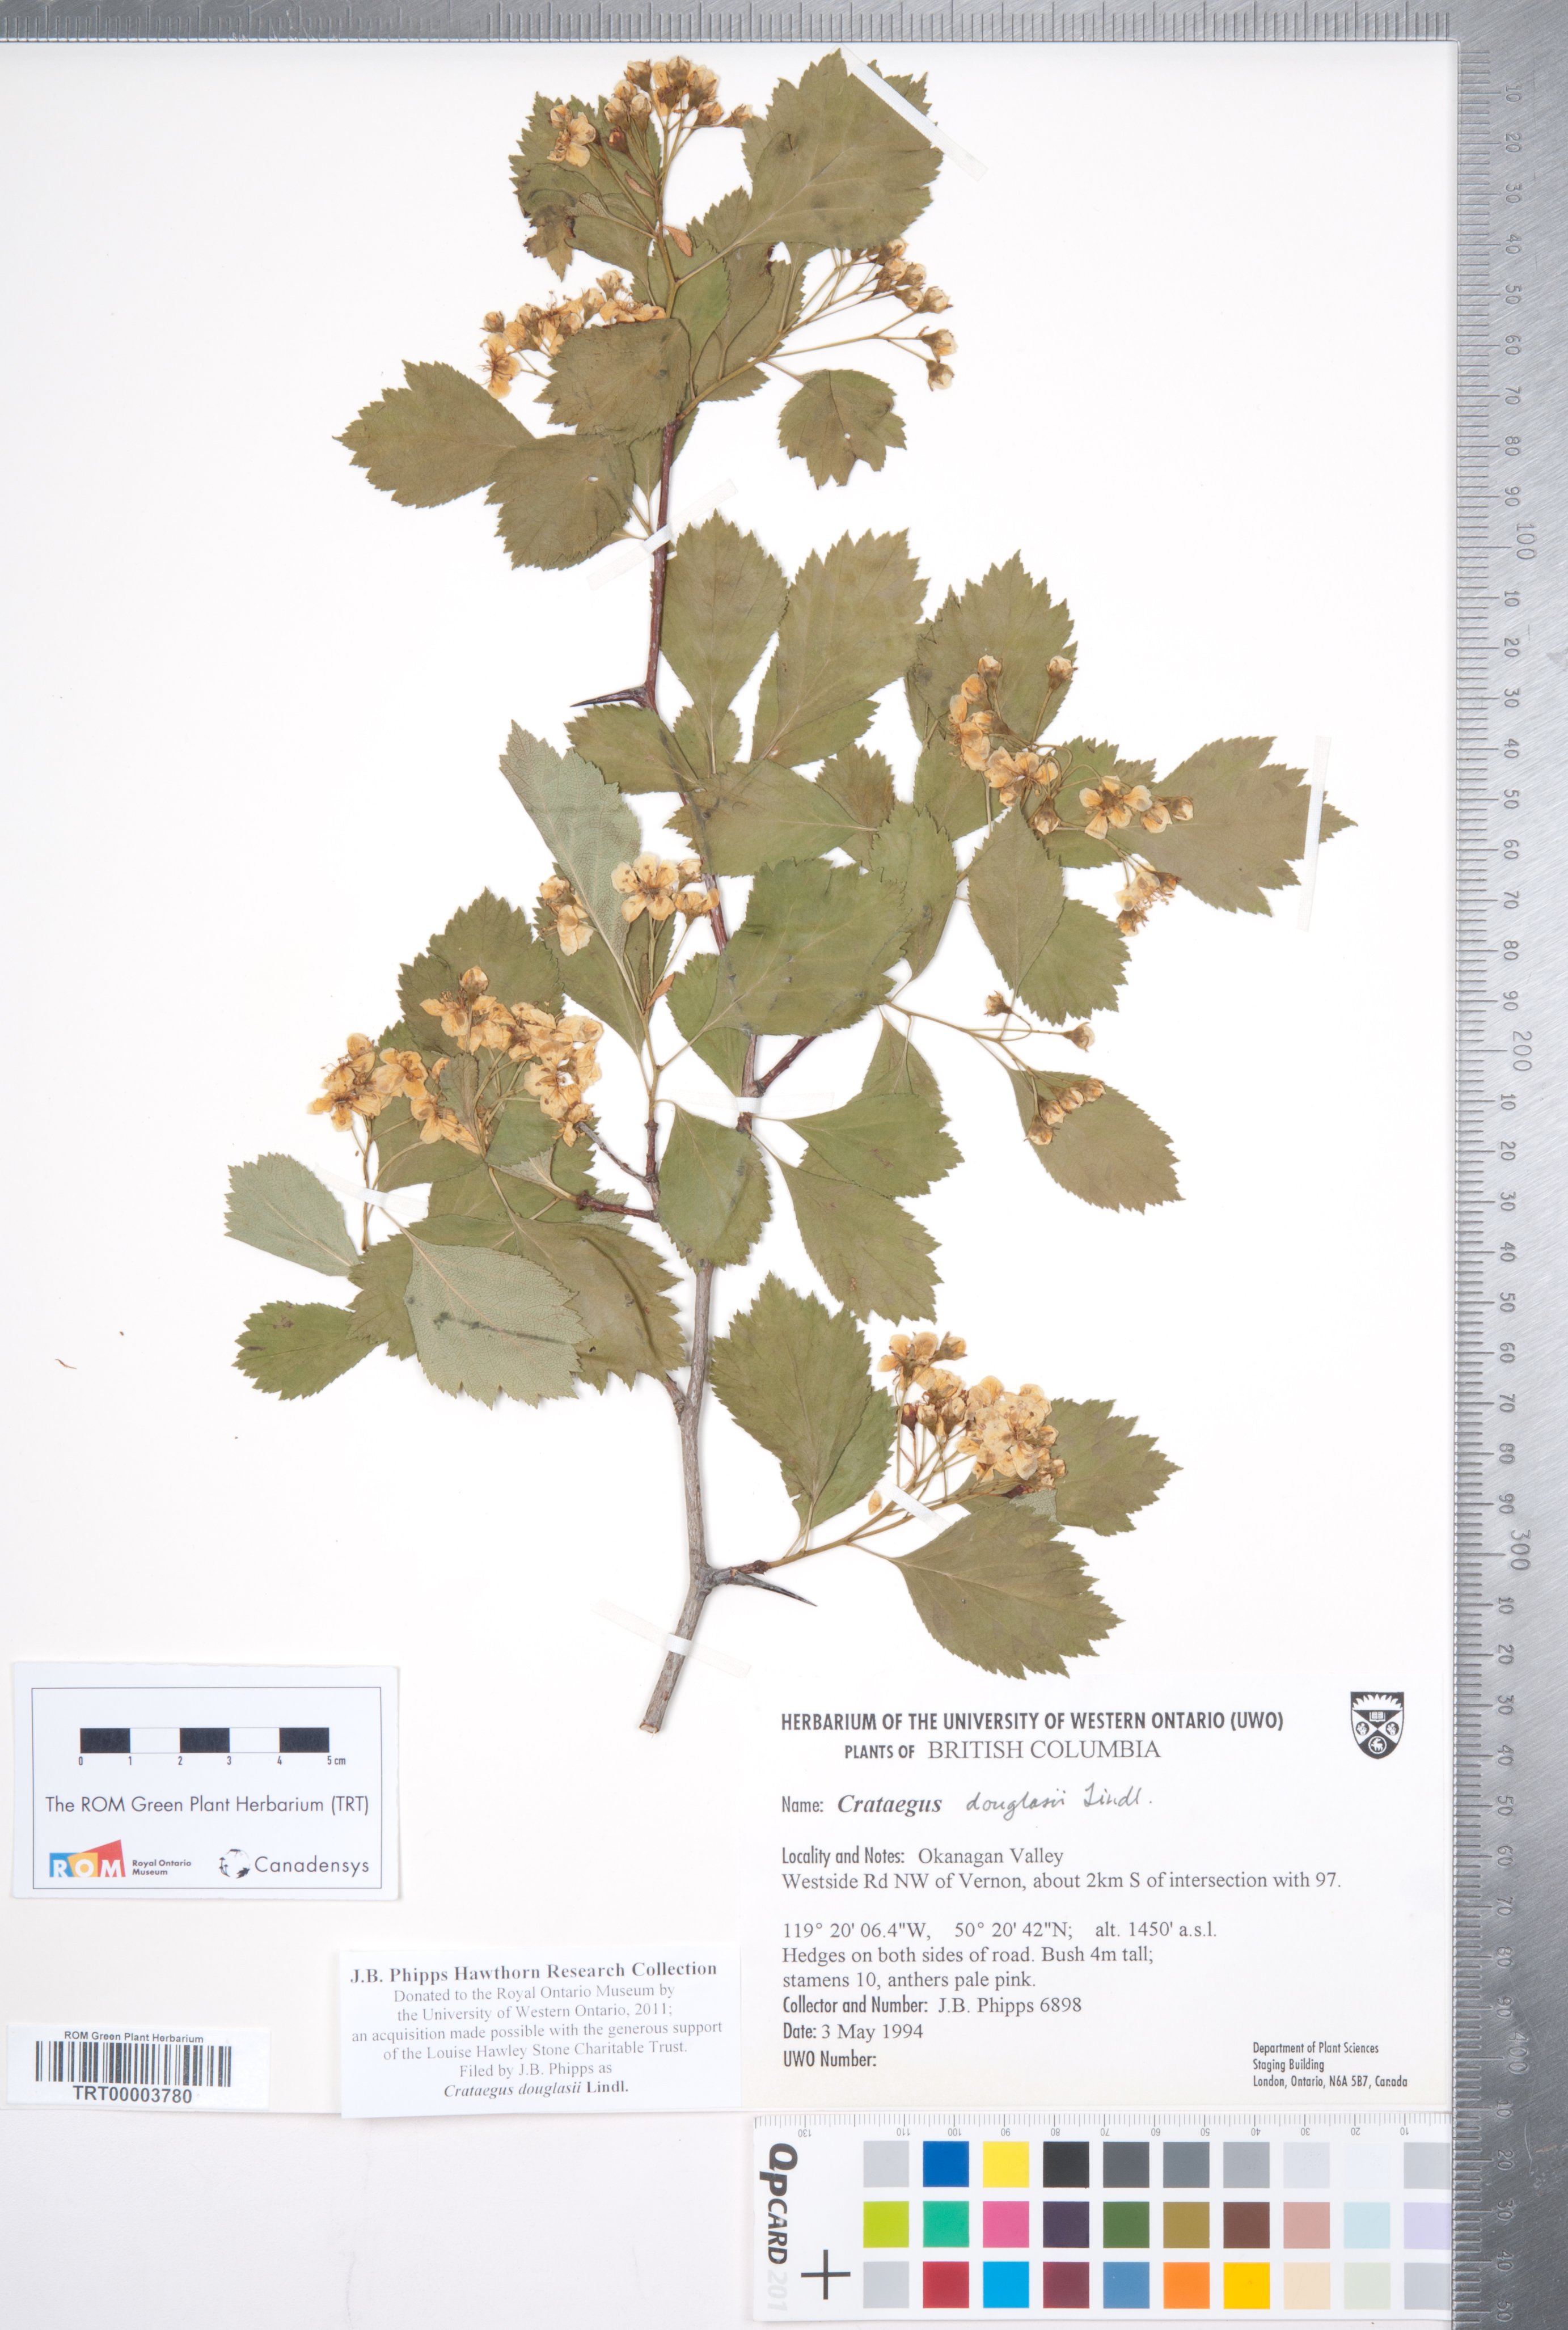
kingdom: Plantae
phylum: Tracheophyta
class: Magnoliopsida
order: Rosales
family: Rosaceae
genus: Crataegus
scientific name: Crataegus douglasii
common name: Black hawthorn
